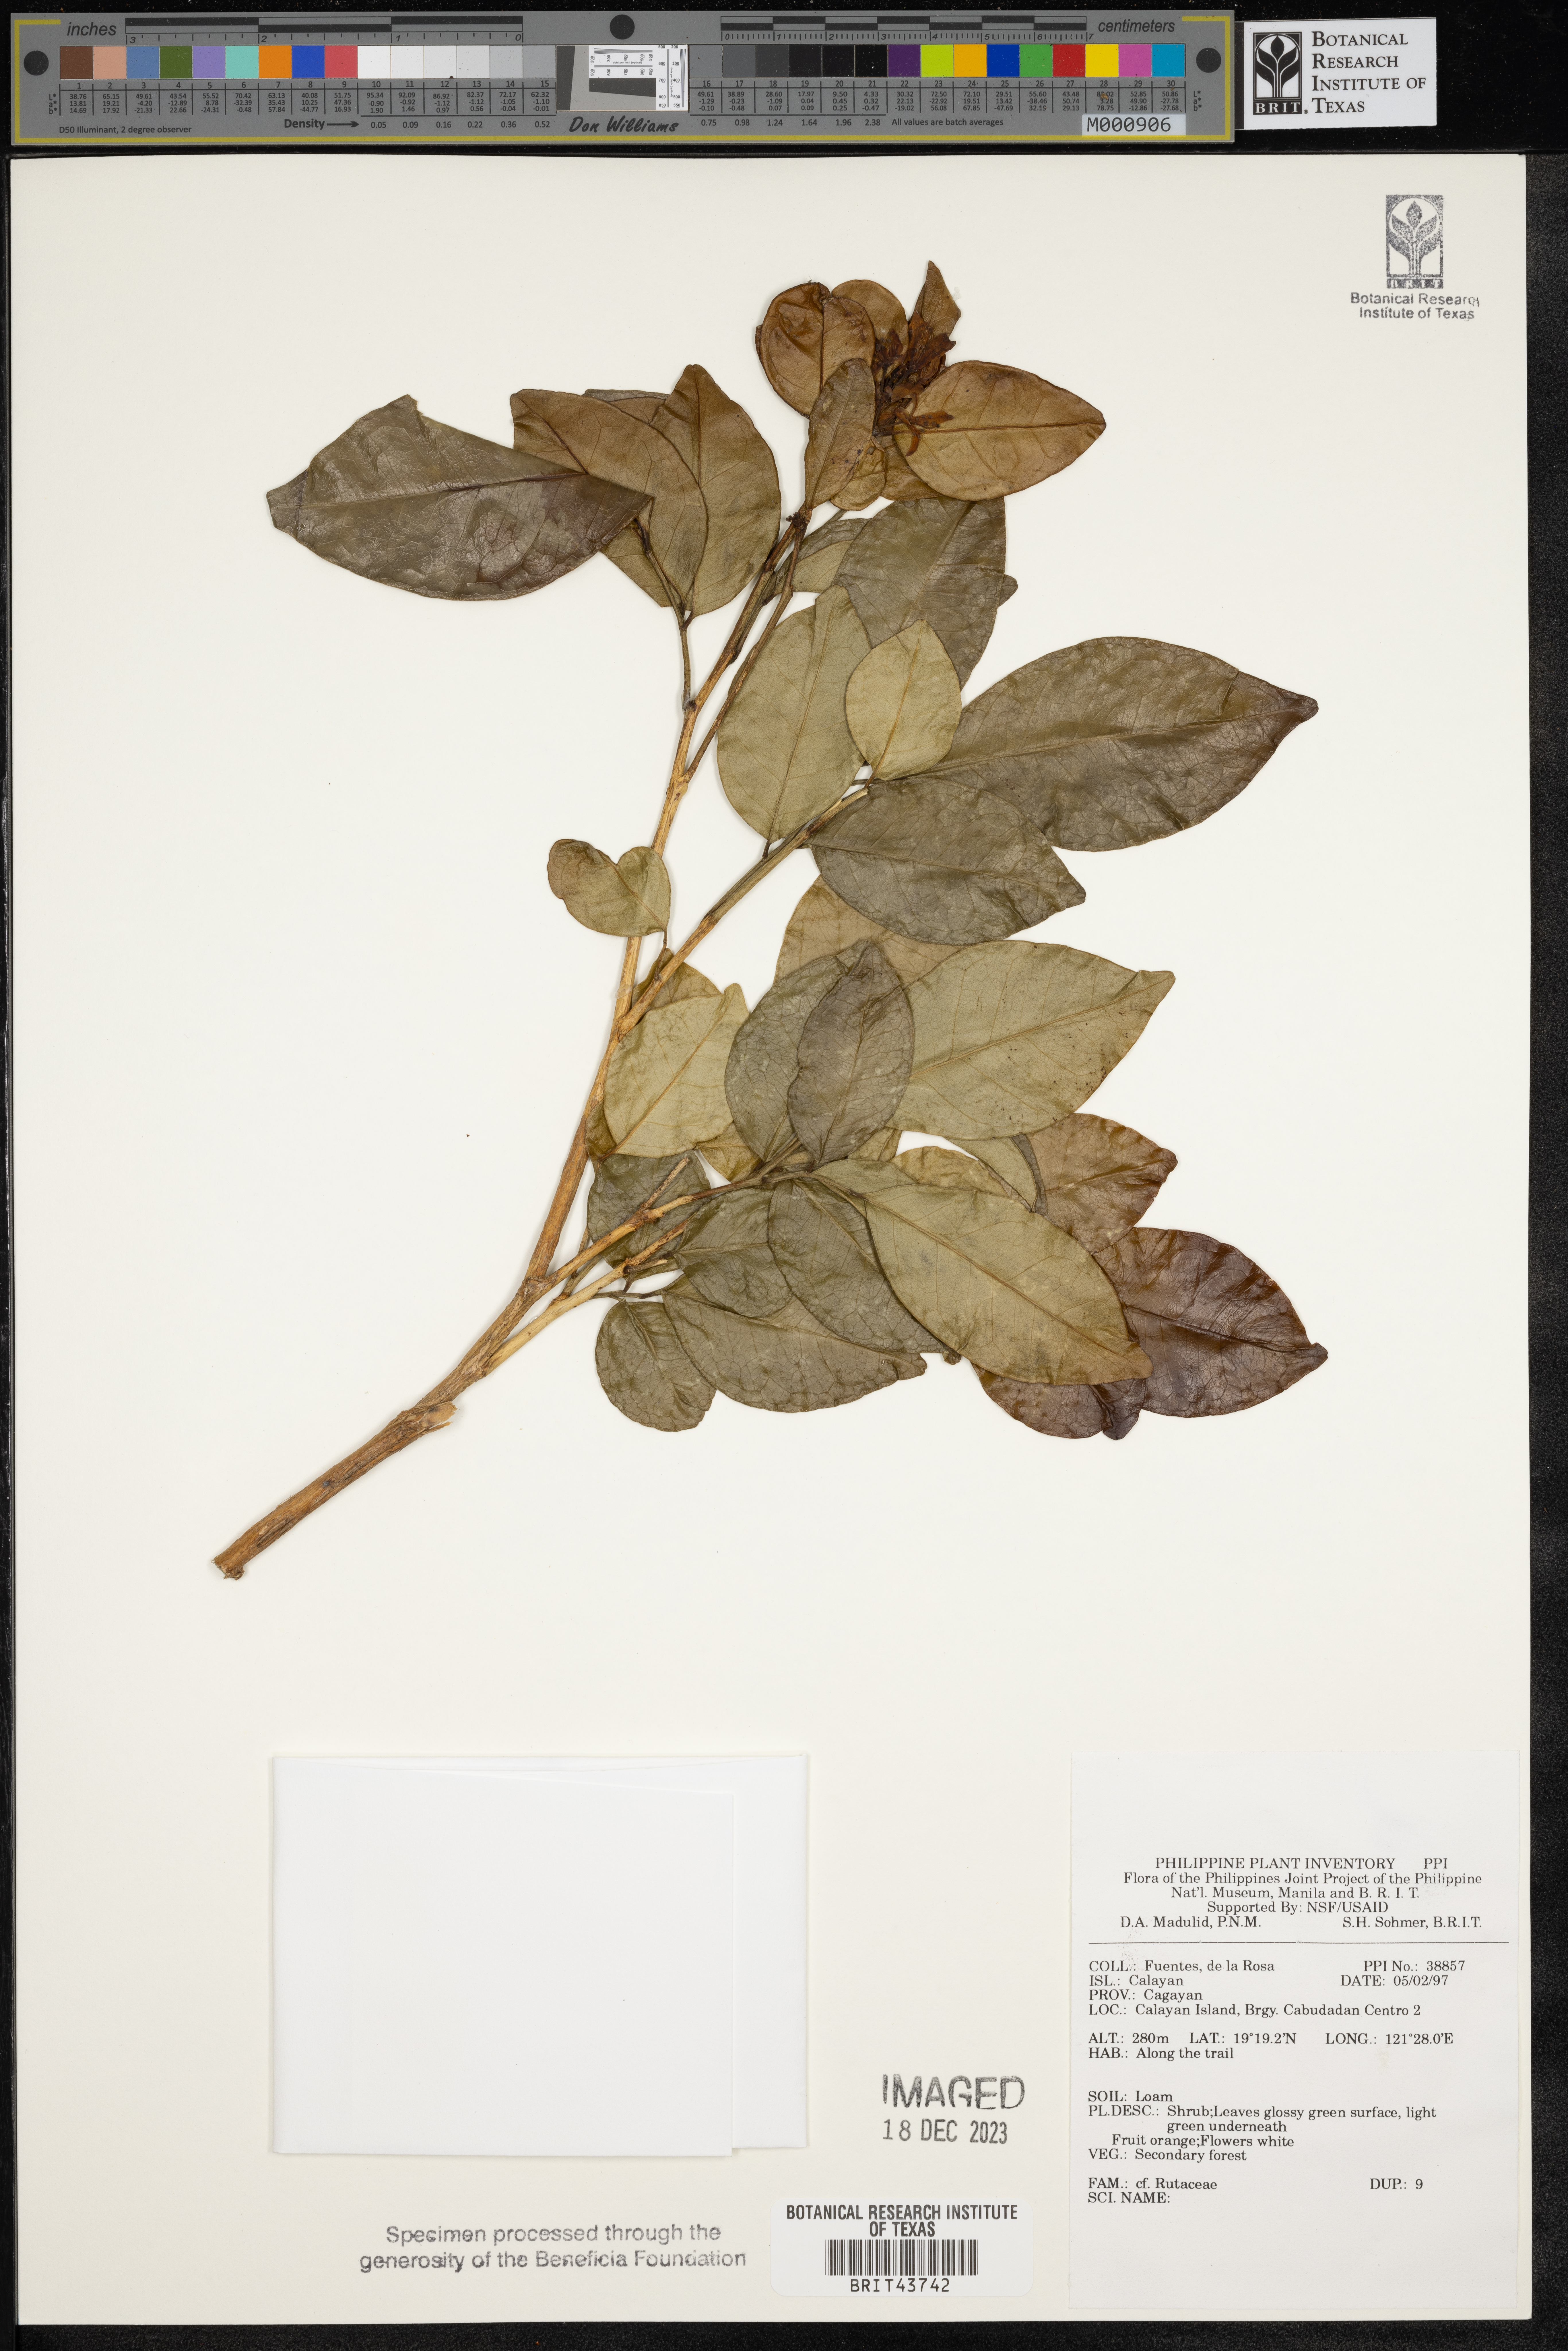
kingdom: Plantae
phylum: Tracheophyta
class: Magnoliopsida
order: Sapindales
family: Rutaceae
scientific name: Rutaceae
